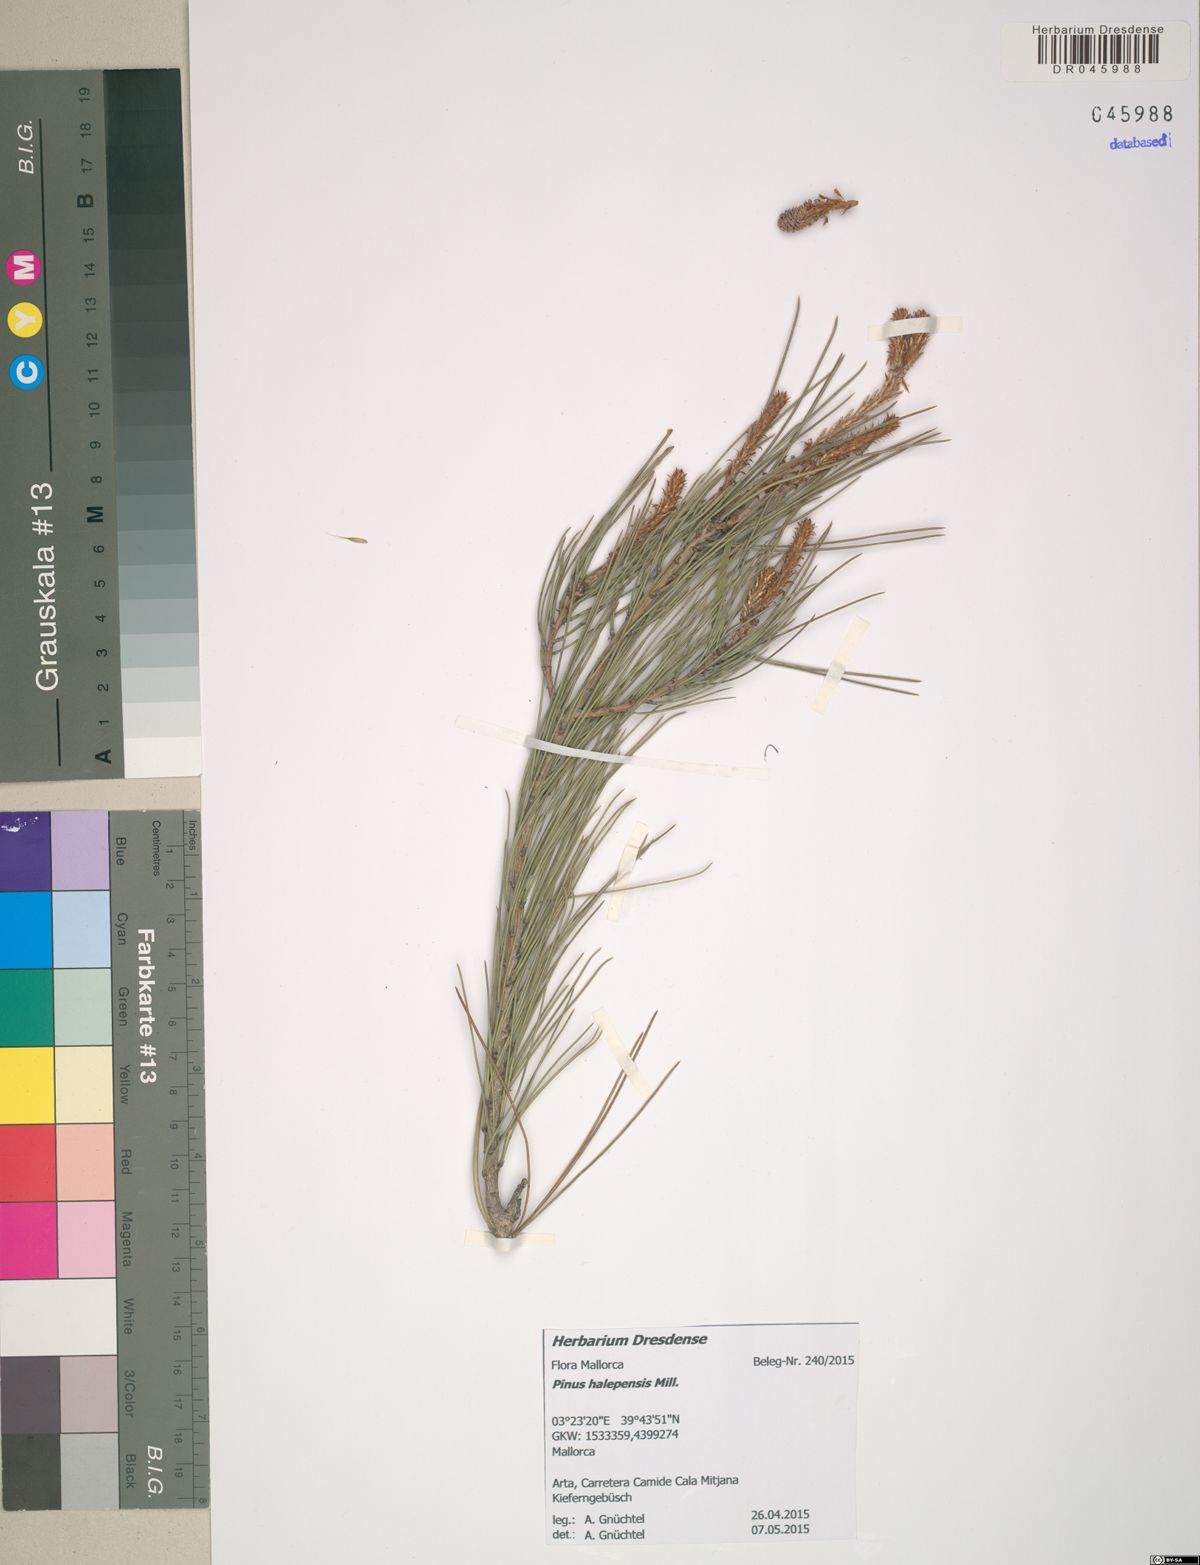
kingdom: Plantae
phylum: Tracheophyta
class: Pinopsida
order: Pinales
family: Pinaceae
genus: Pinus
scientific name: Pinus halepensis
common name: Aleppo pine
